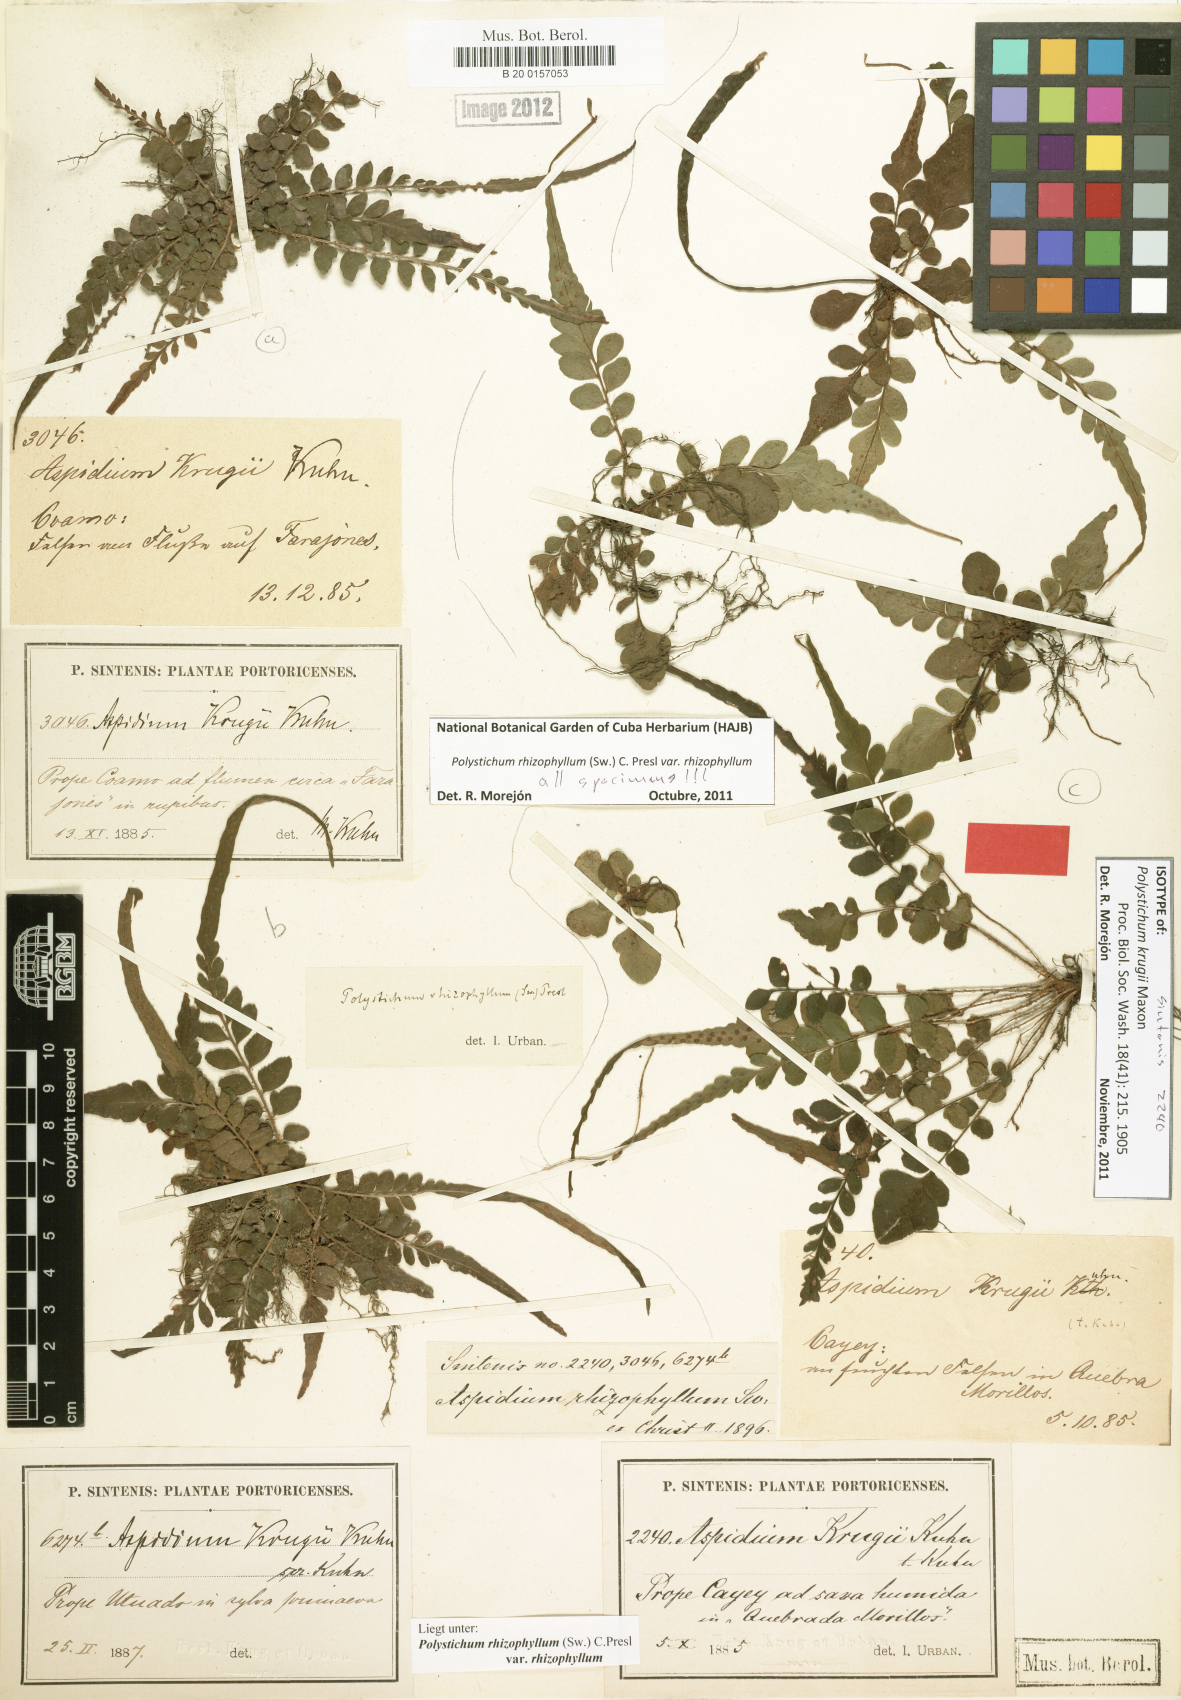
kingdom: Plantae
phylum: Tracheophyta
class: Polypodiopsida
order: Polypodiales
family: Dryopteridaceae
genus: Polystichum
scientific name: Polystichum rhizophyllum
